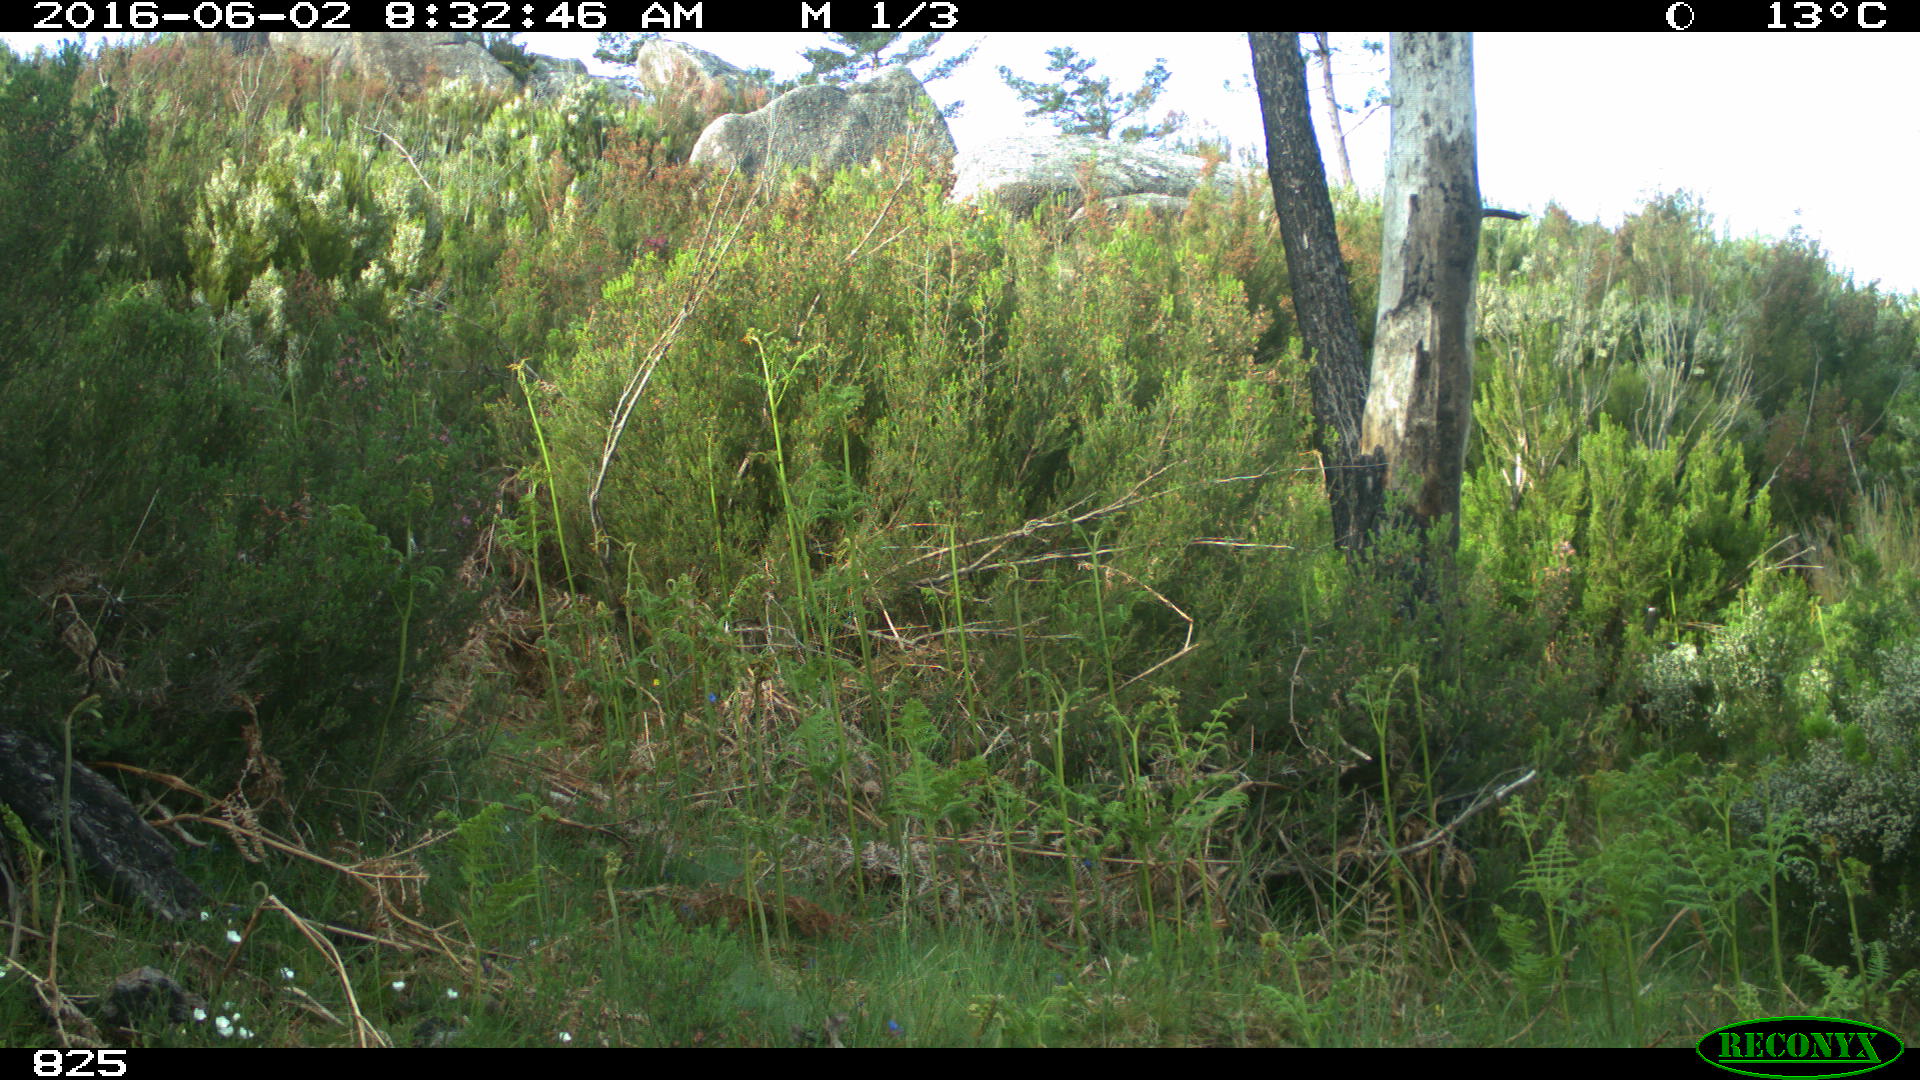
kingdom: Animalia
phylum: Chordata
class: Mammalia
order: Artiodactyla
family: Cervidae
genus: Capreolus
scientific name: Capreolus capreolus
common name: Western roe deer
